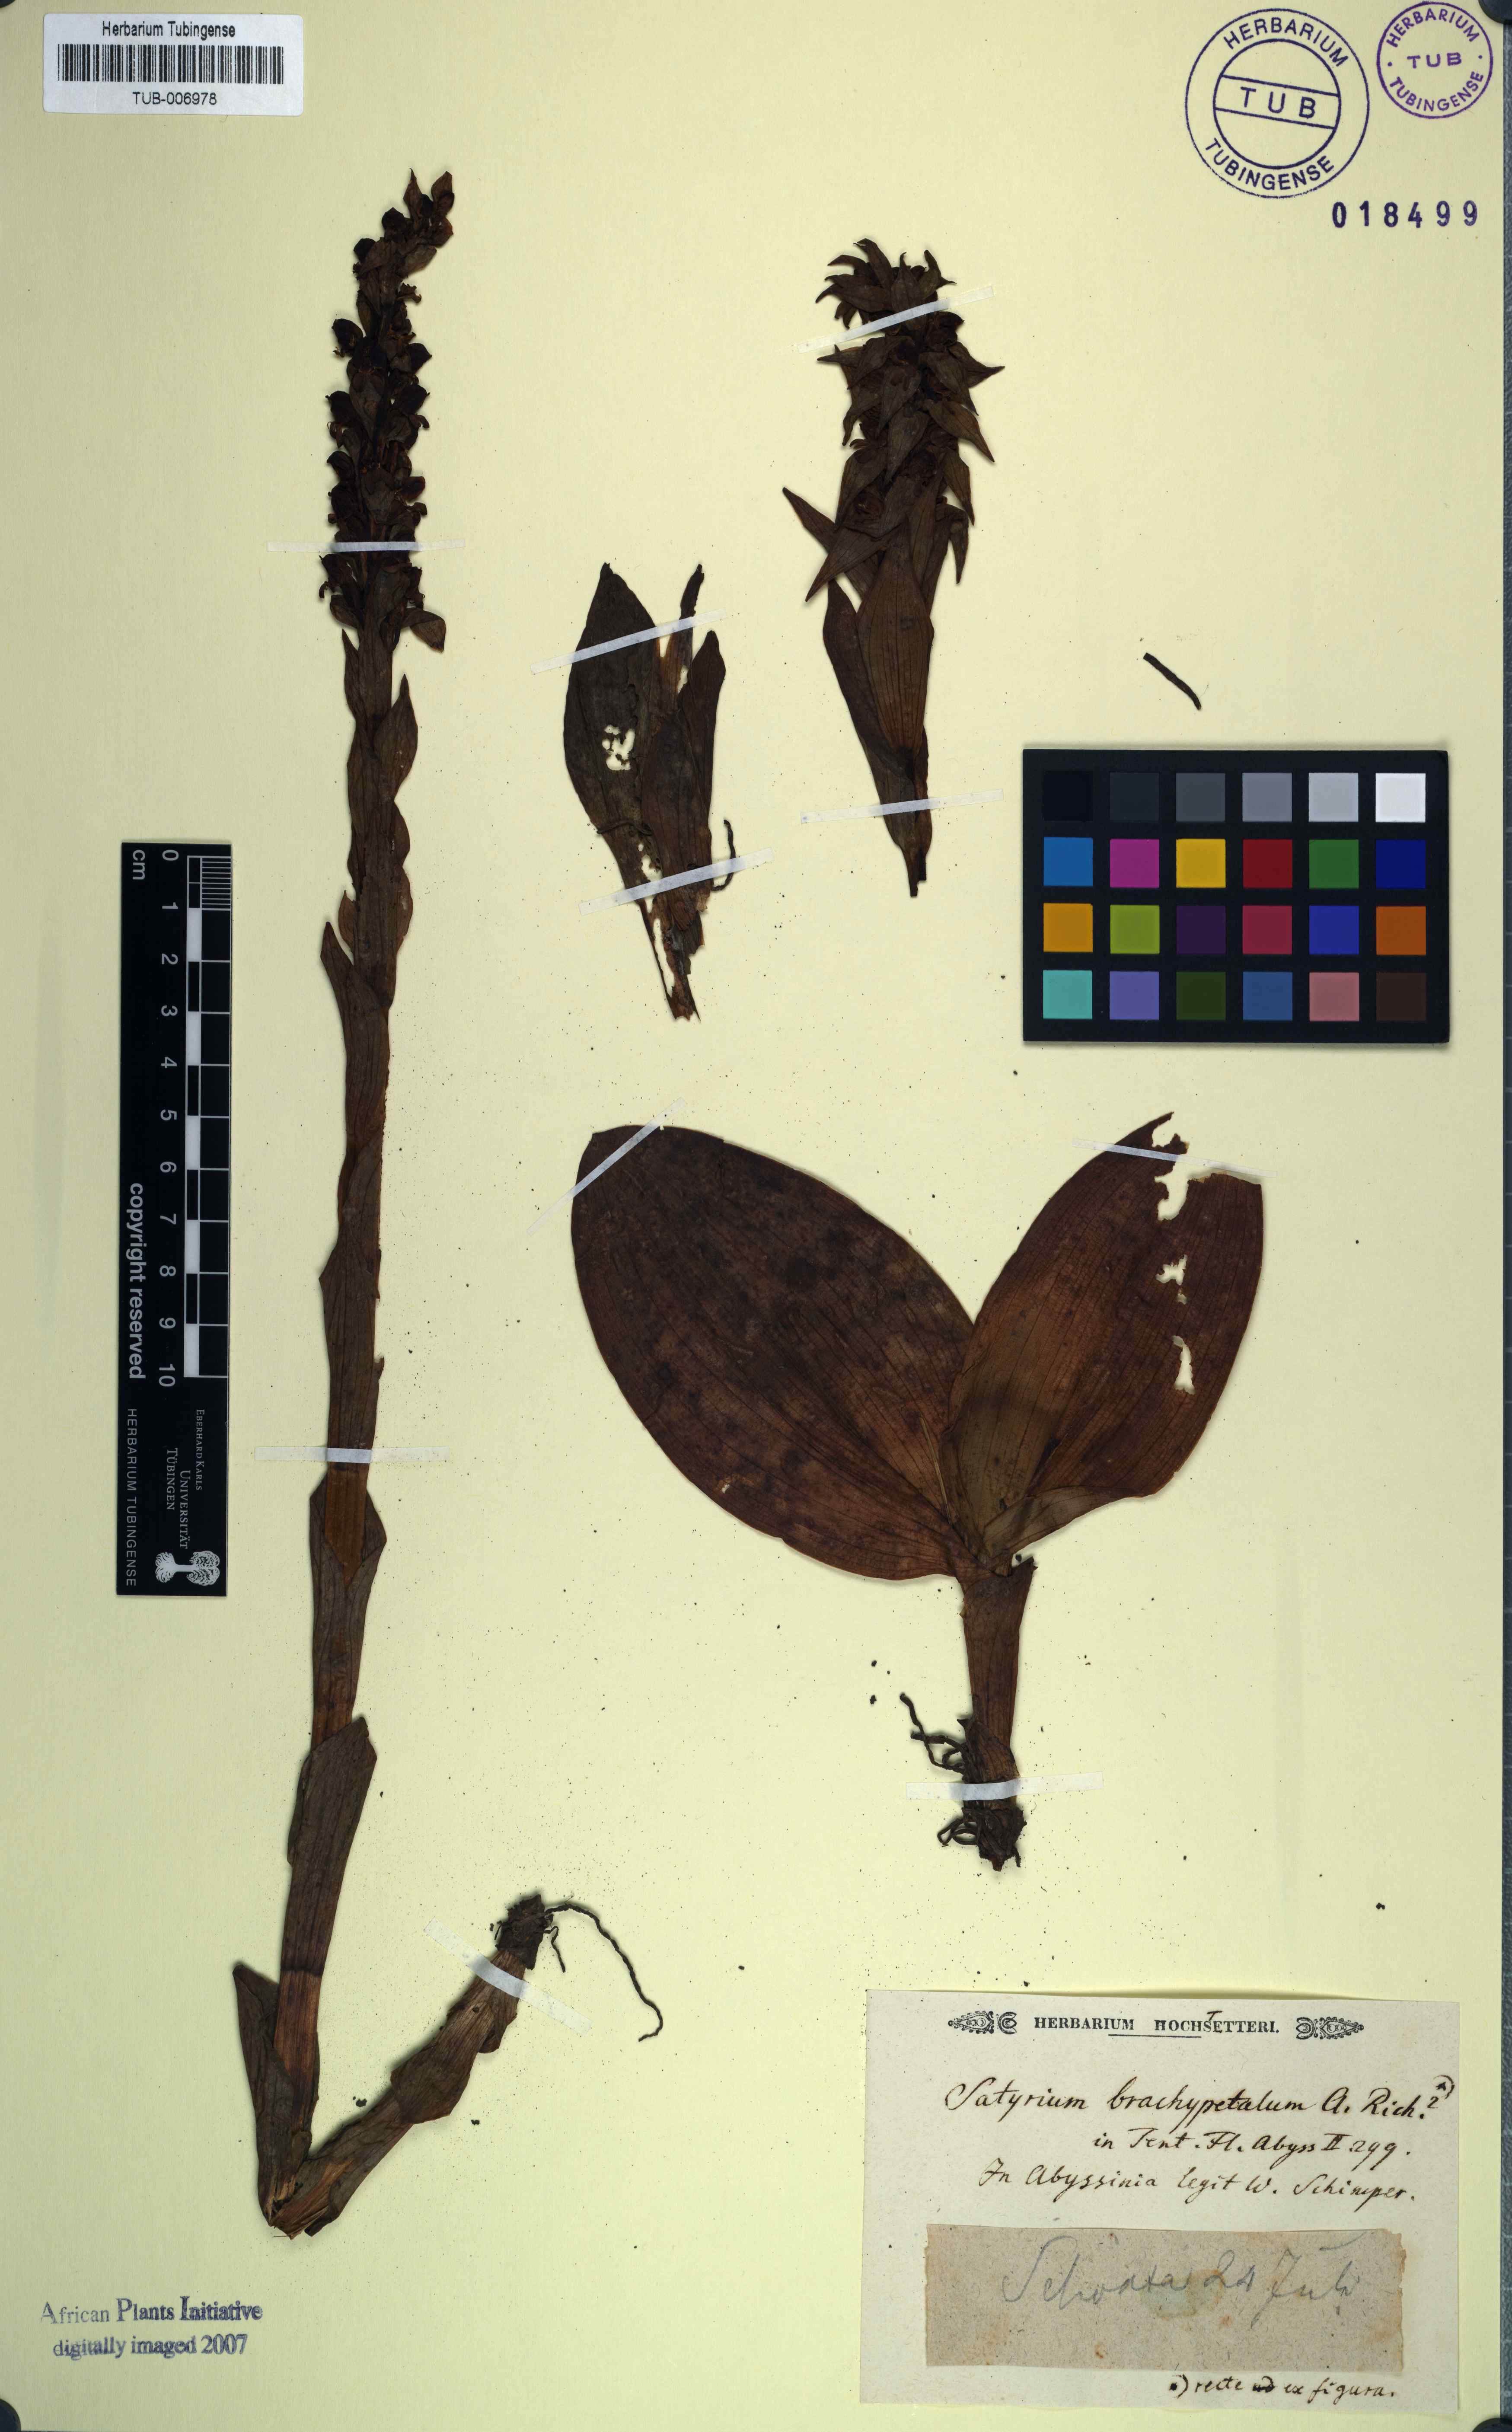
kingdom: Plantae
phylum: Tracheophyta
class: Liliopsida
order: Asparagales
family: Orchidaceae
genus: Satyrium
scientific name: Satyrium brachypetalum
